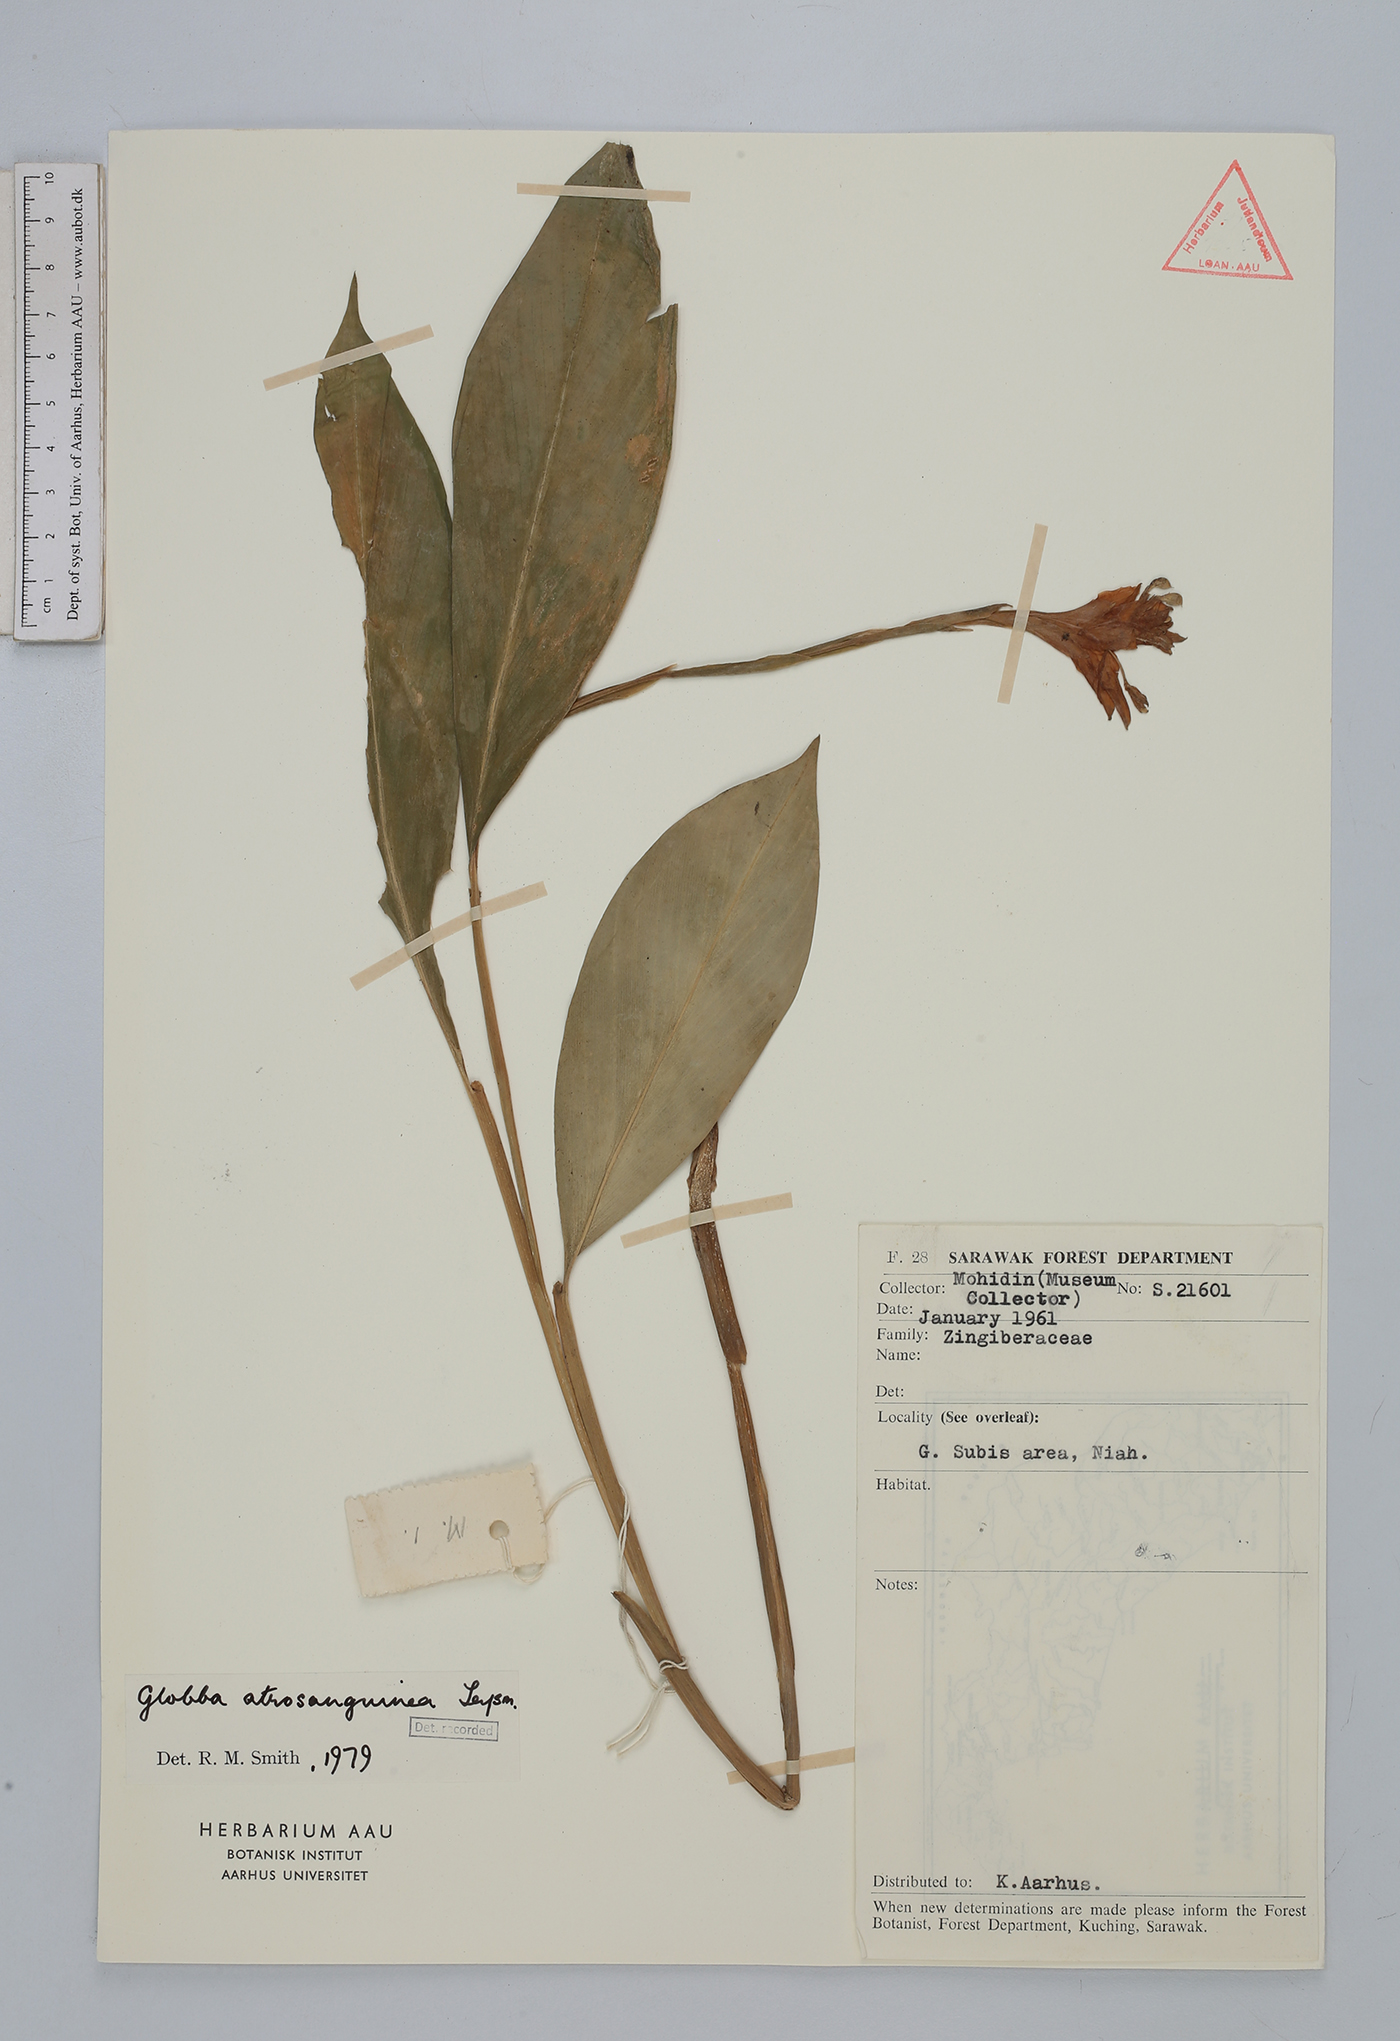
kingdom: Plantae
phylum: Tracheophyta
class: Liliopsida
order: Zingiberales
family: Zingiberaceae
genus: Globba
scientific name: Globba atrosanguinea
